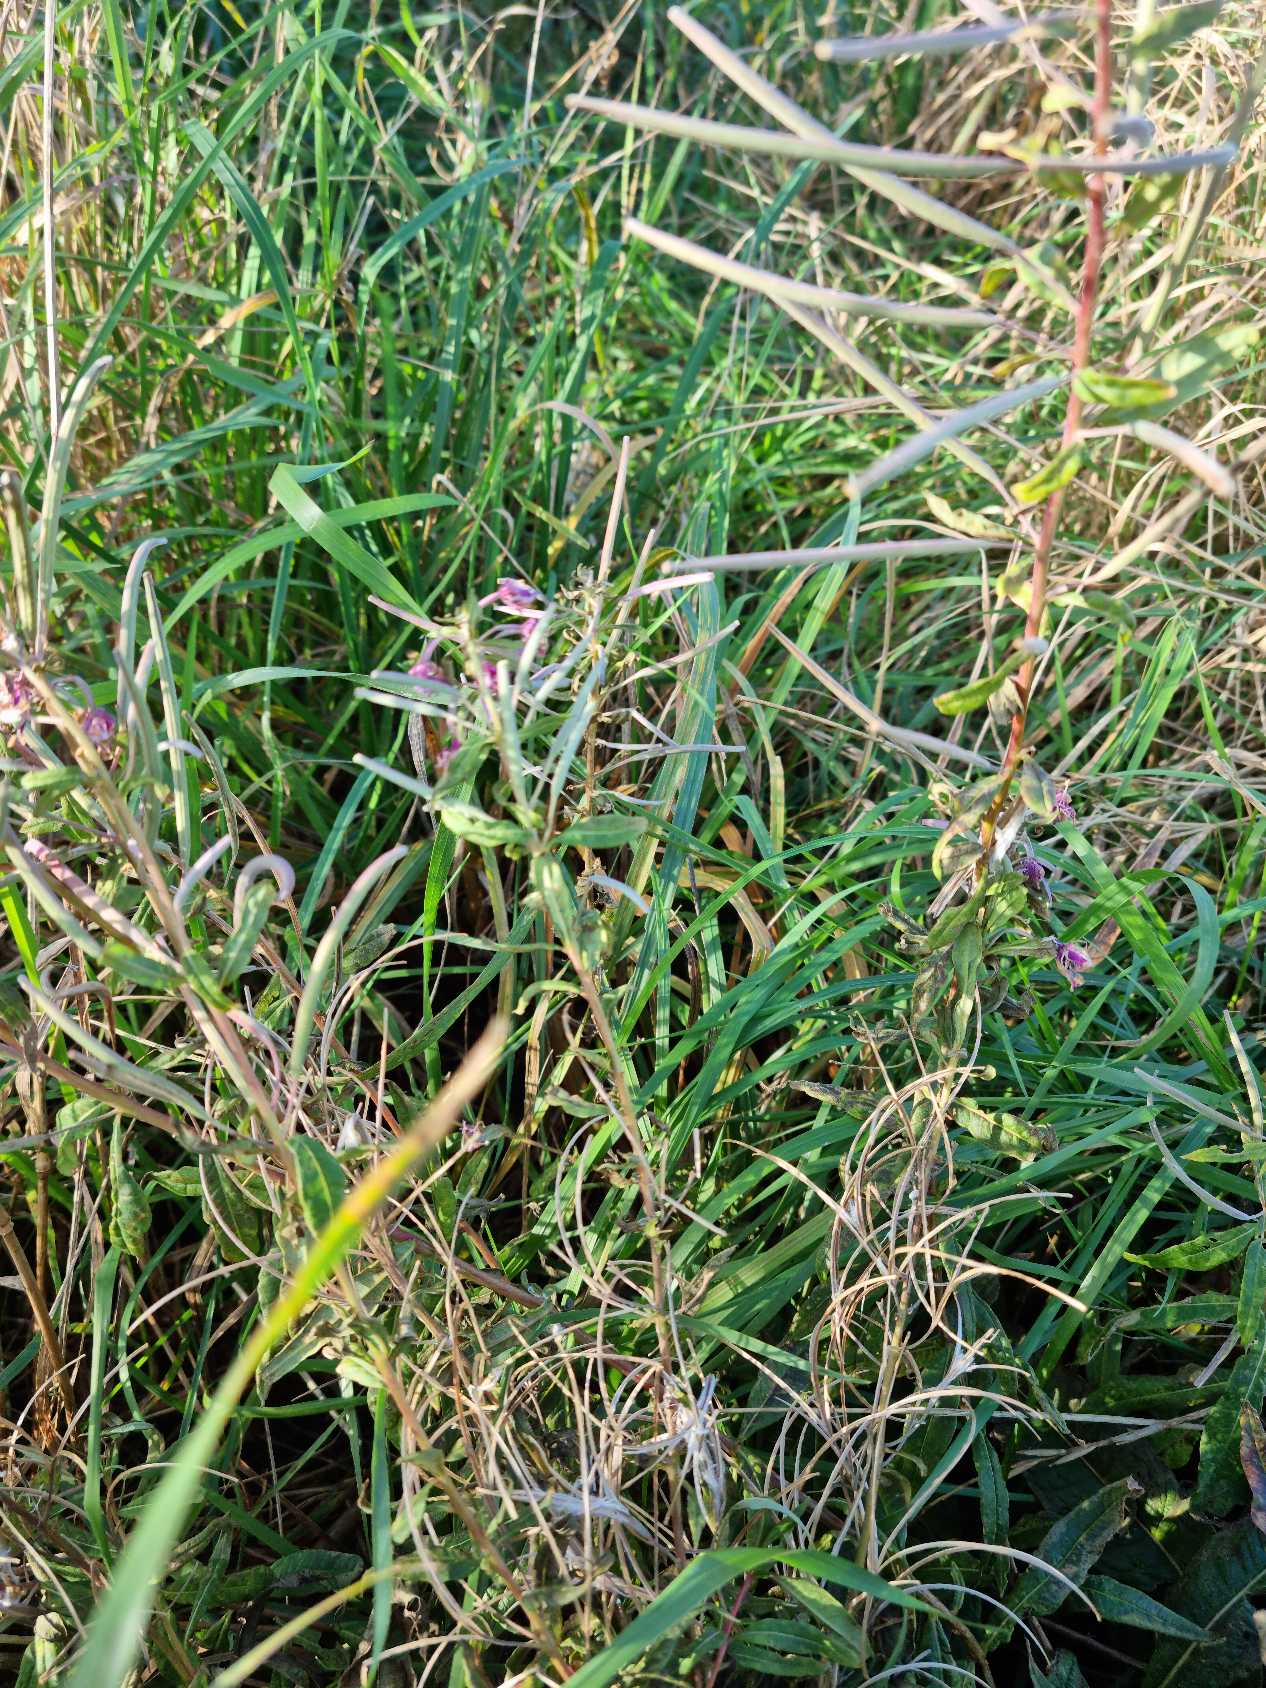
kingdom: Plantae
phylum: Tracheophyta
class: Magnoliopsida
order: Myrtales
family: Onagraceae
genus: Epilobium
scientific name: Epilobium
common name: Dueurtslægten
